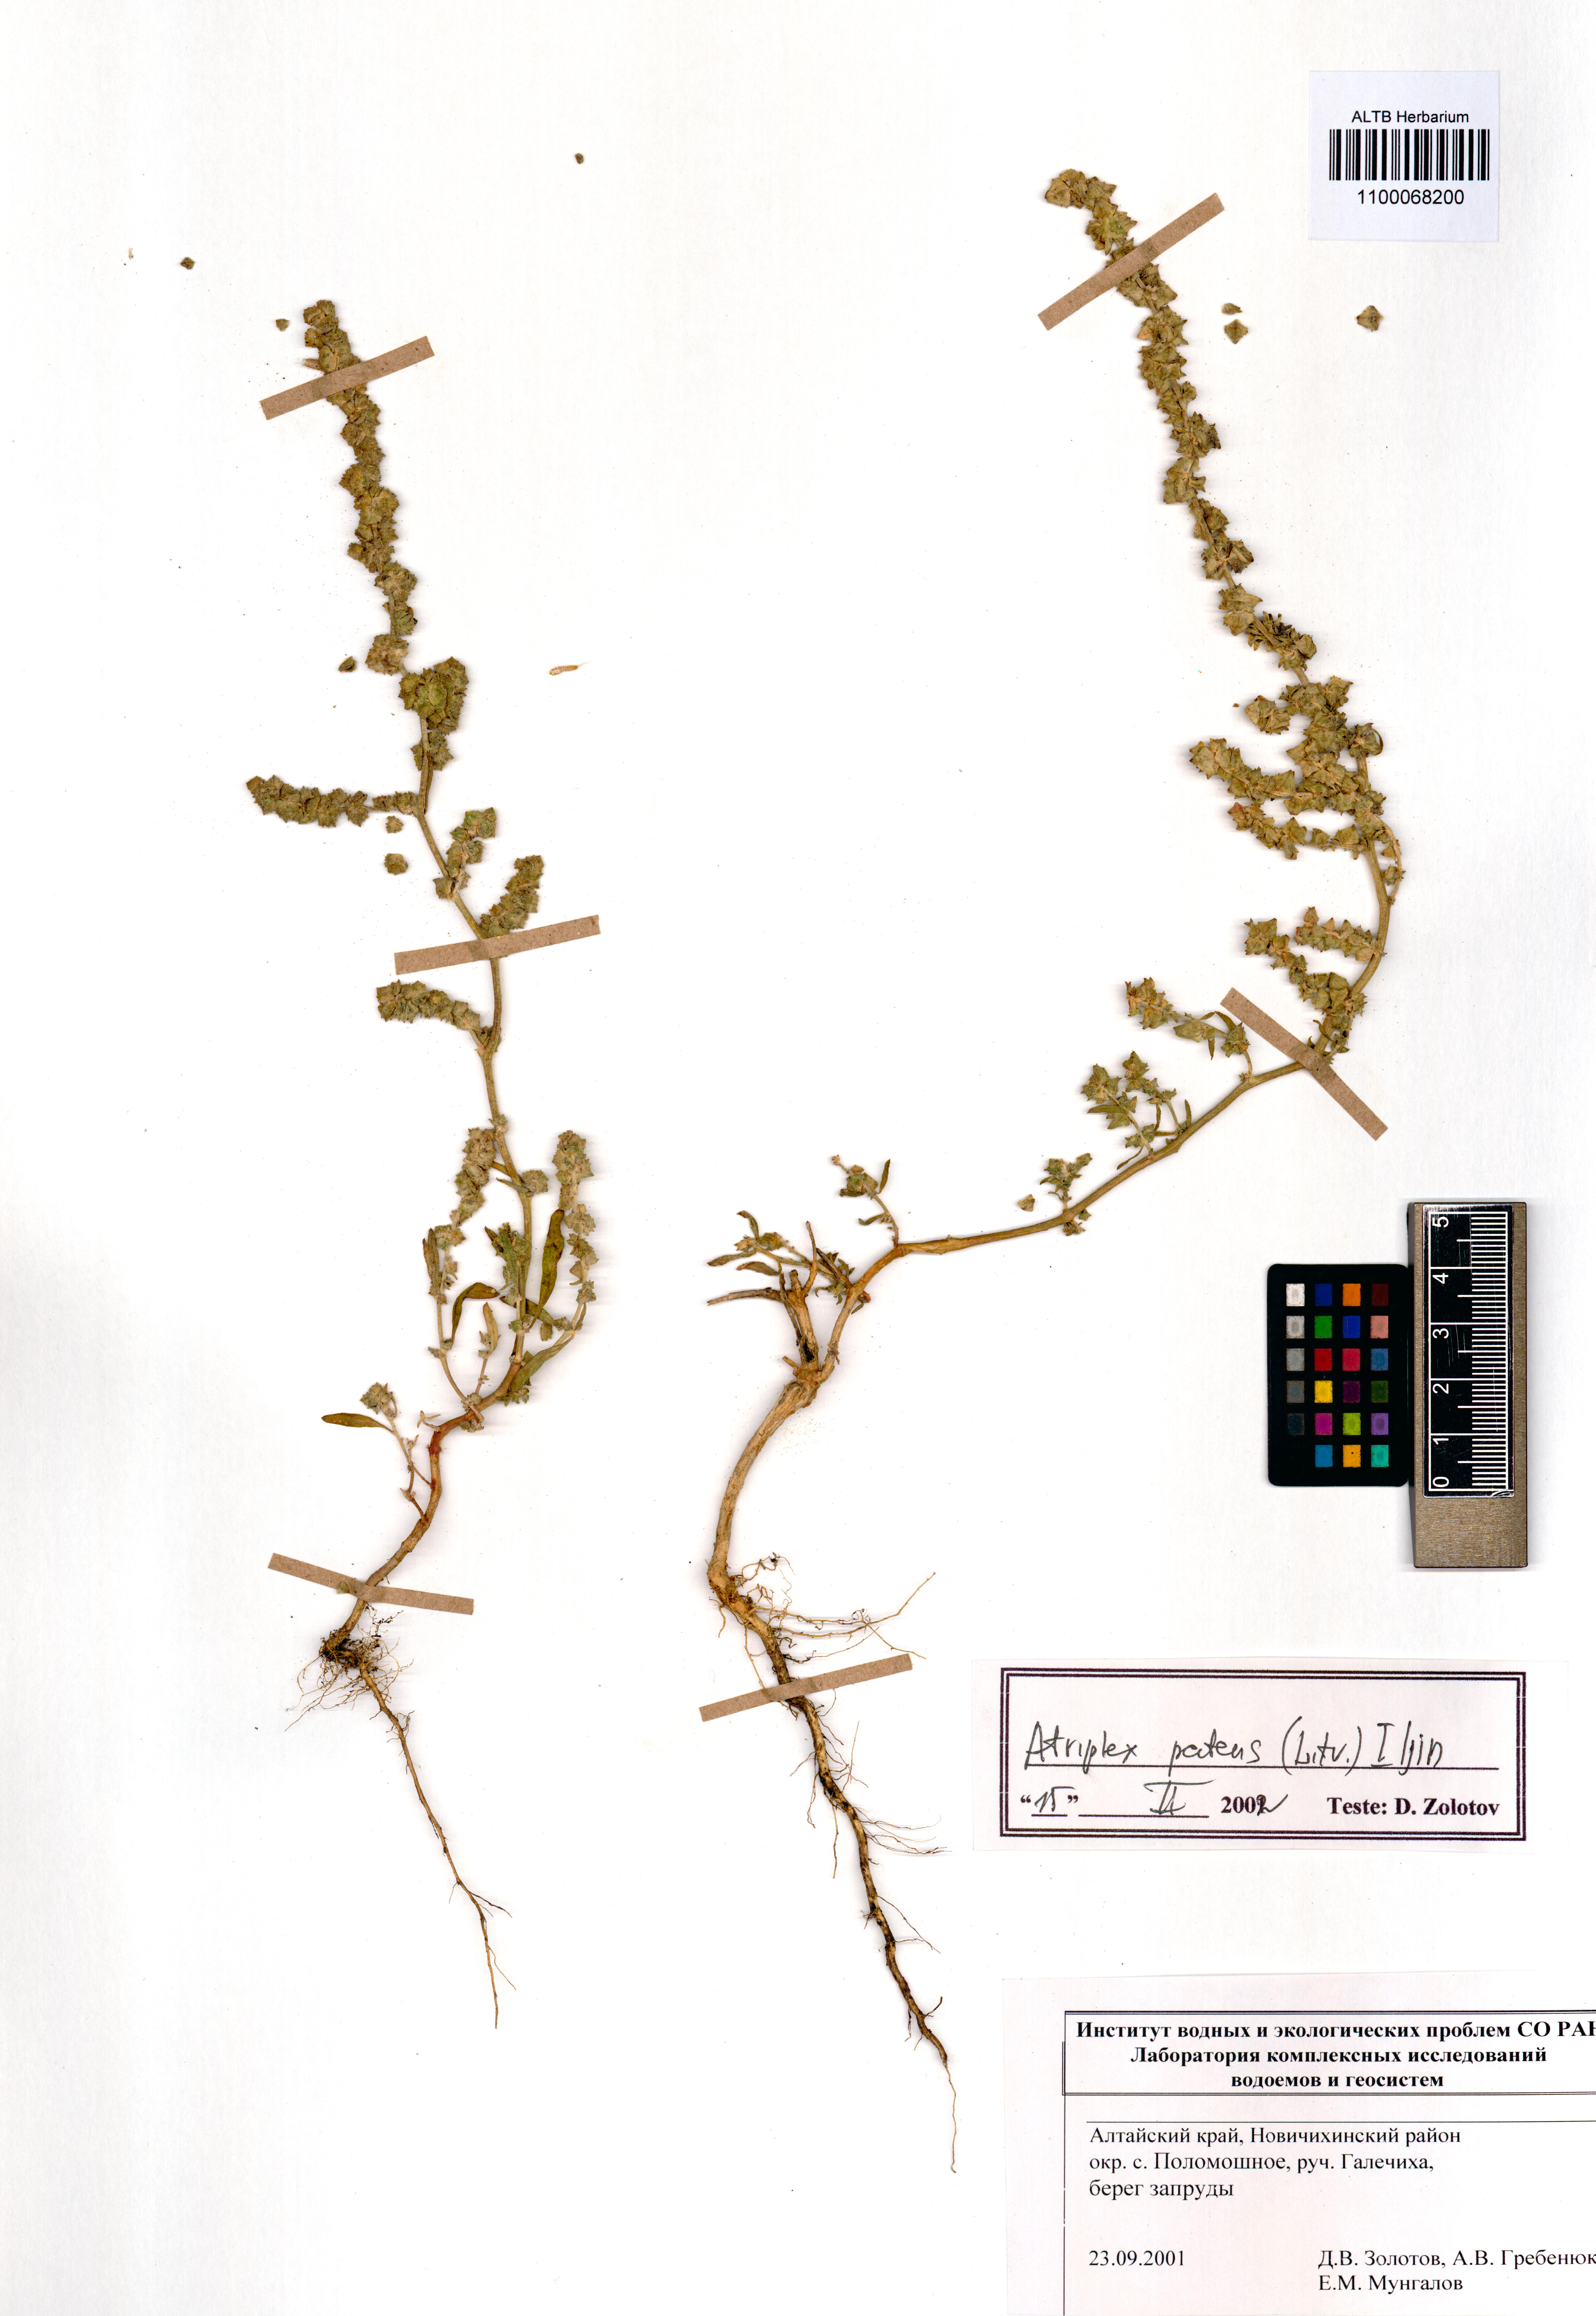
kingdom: Plantae
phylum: Tracheophyta
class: Magnoliopsida
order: Caryophyllales
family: Amaranthaceae
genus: Atriplex
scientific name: Atriplex patens
